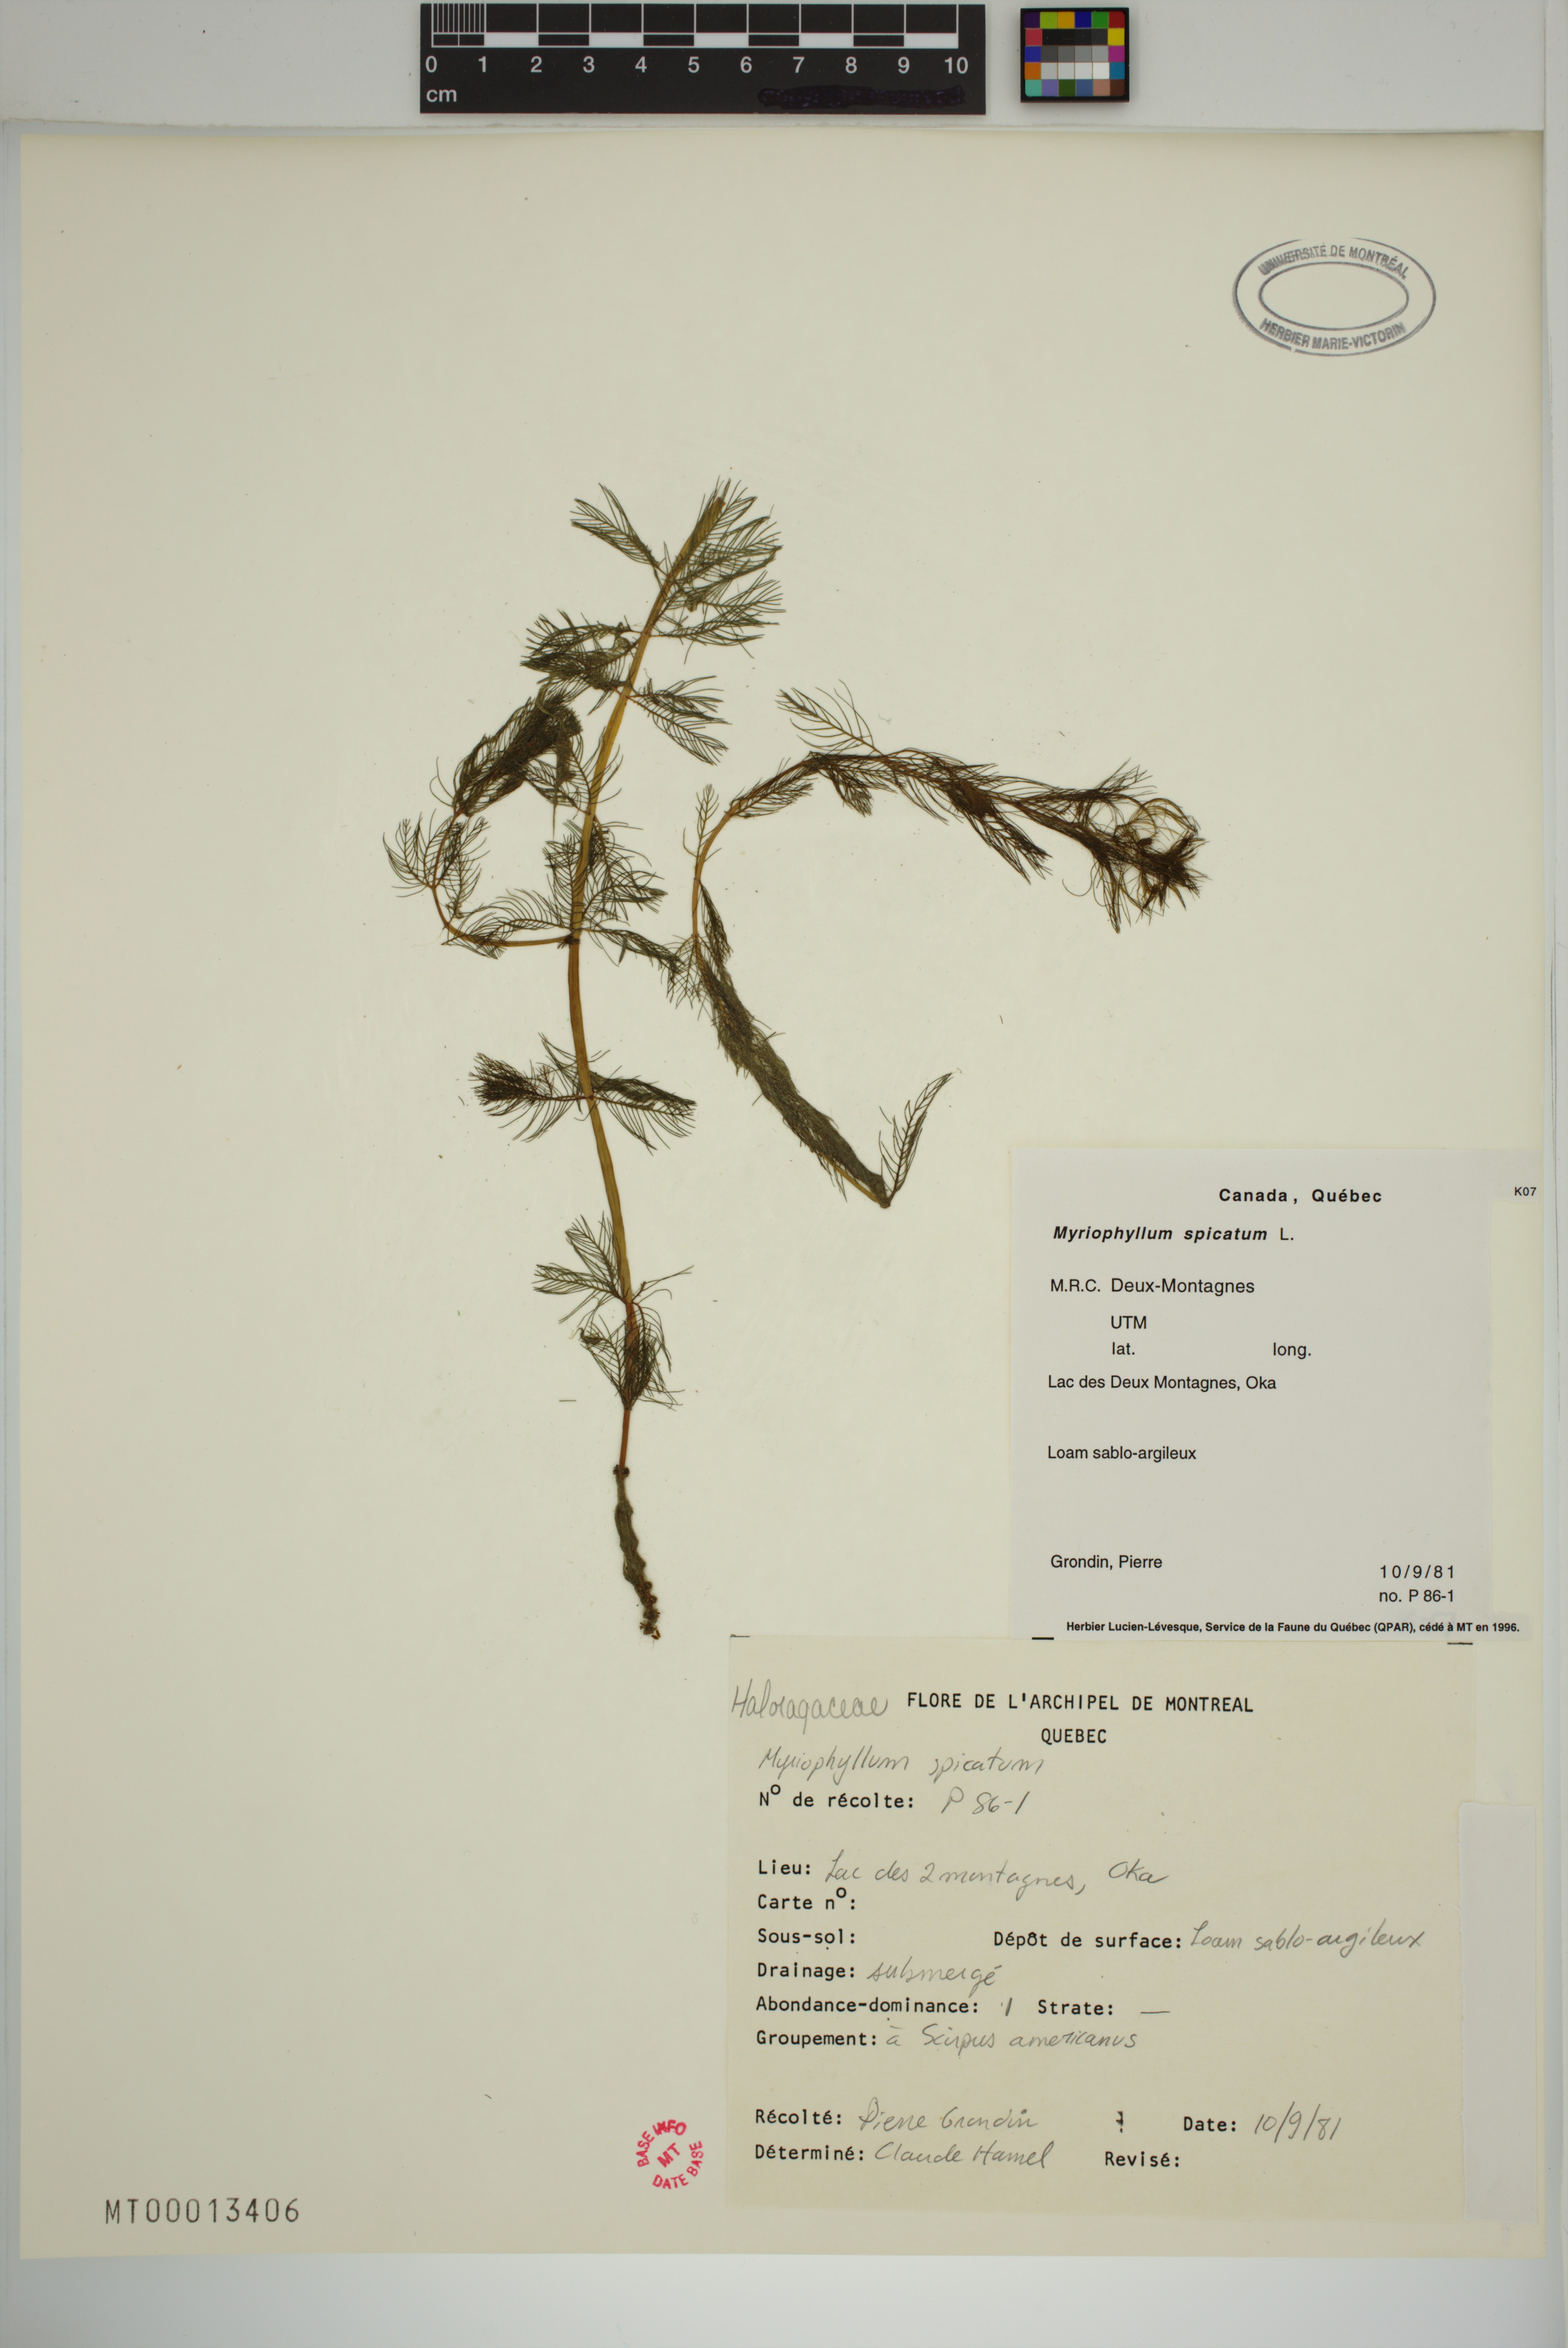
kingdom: Plantae
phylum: Tracheophyta
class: Magnoliopsida
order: Saxifragales
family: Haloragaceae
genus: Myriophyllum
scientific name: Myriophyllum spicatum
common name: Spiked water-milfoil
